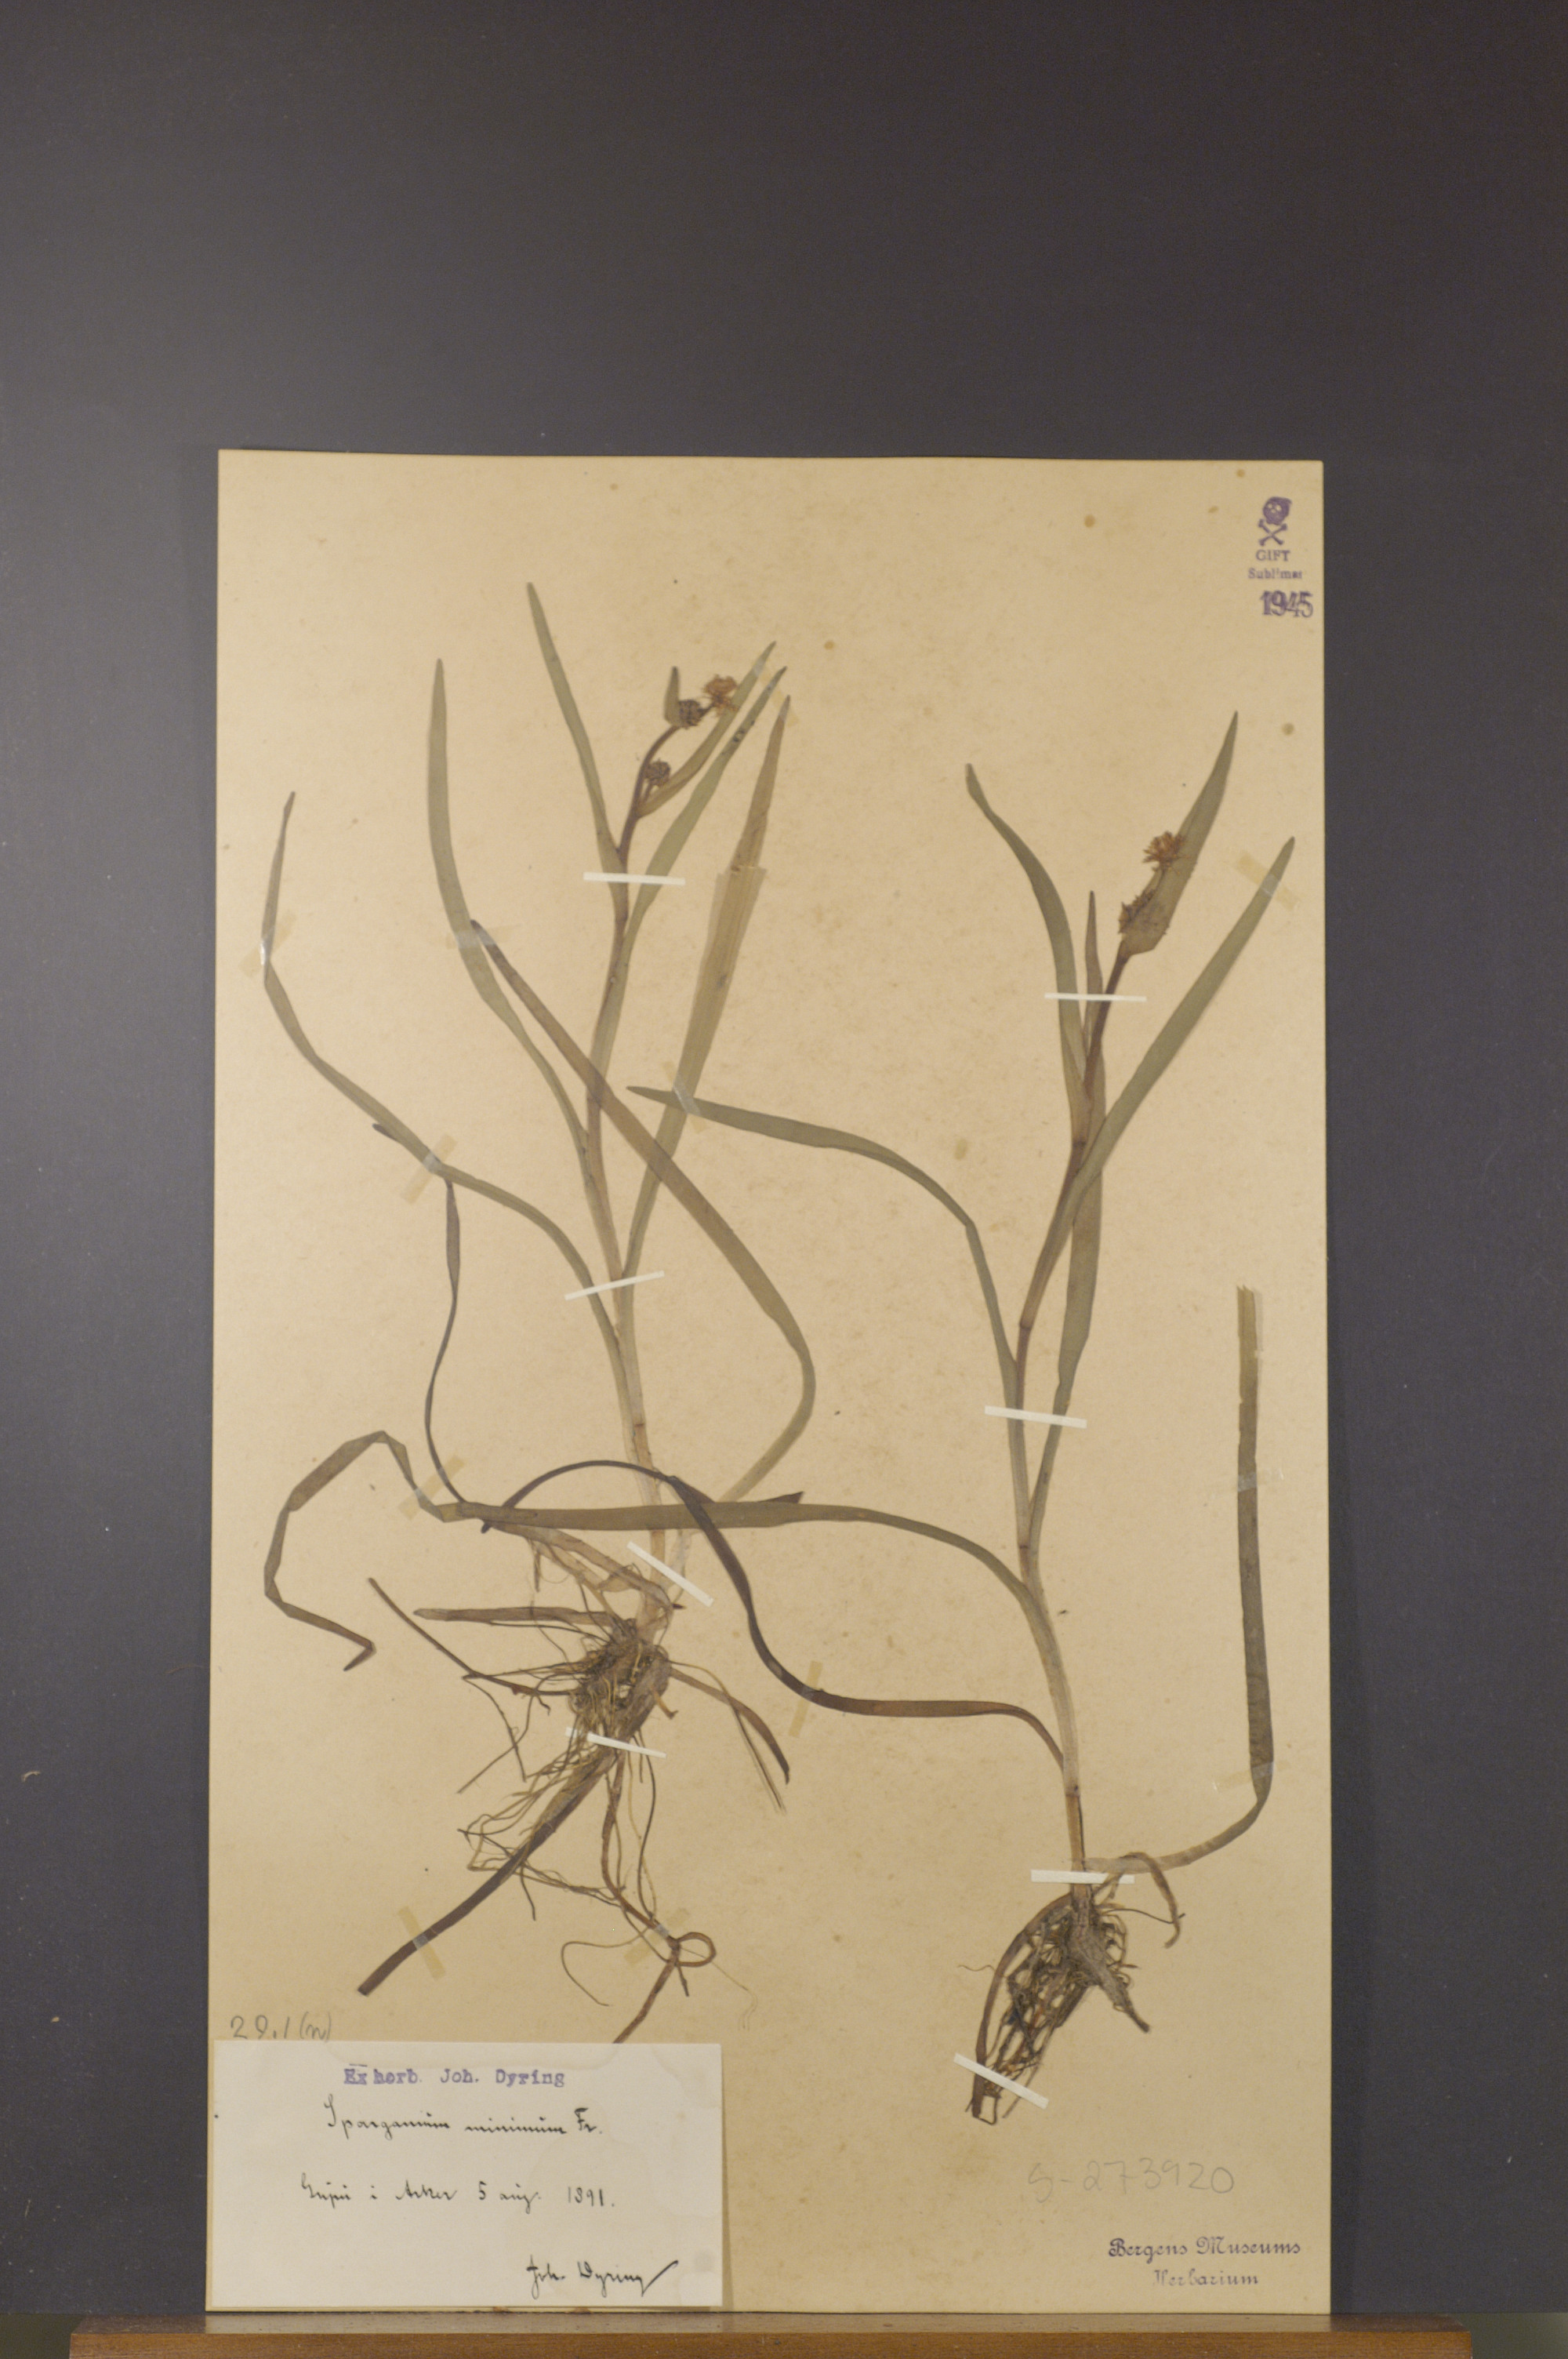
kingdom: Plantae
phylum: Tracheophyta
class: Liliopsida
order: Poales
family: Typhaceae
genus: Sparganium
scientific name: Sparganium natans
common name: Least bur-reed
